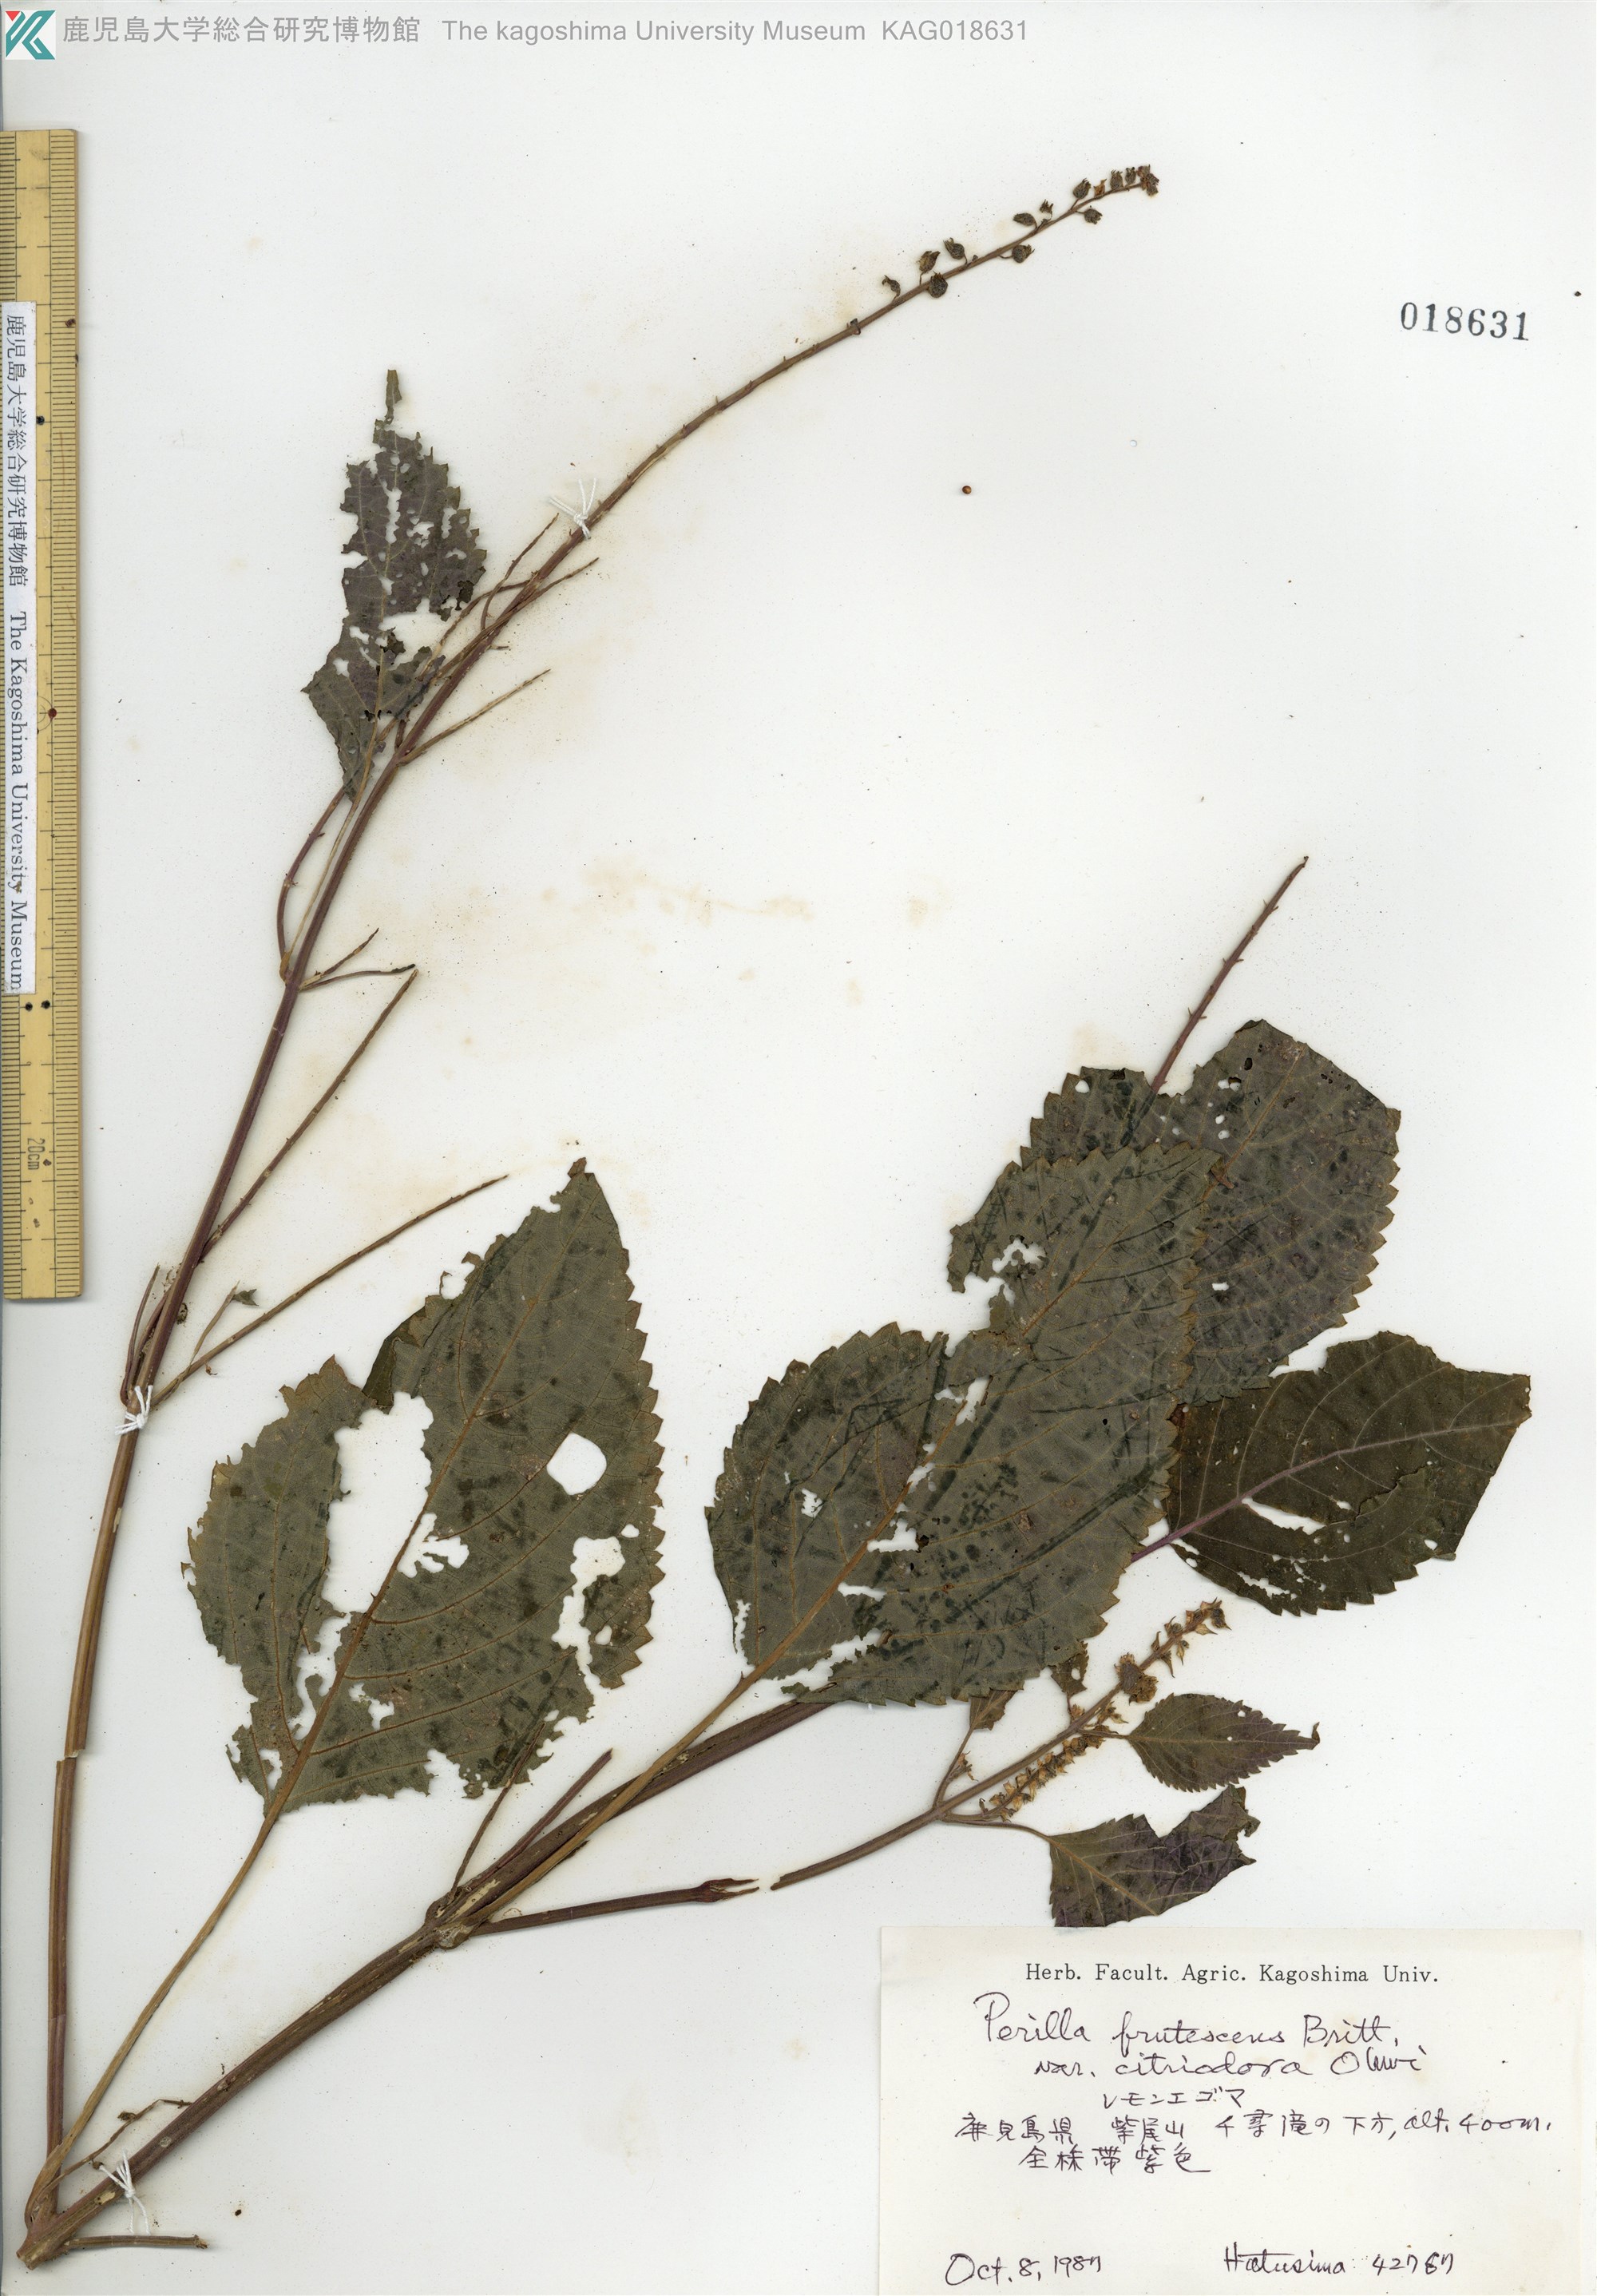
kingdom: Plantae
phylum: Tracheophyta
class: Magnoliopsida
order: Lamiales
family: Lamiaceae
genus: Perilla
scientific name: Perilla frutescens
